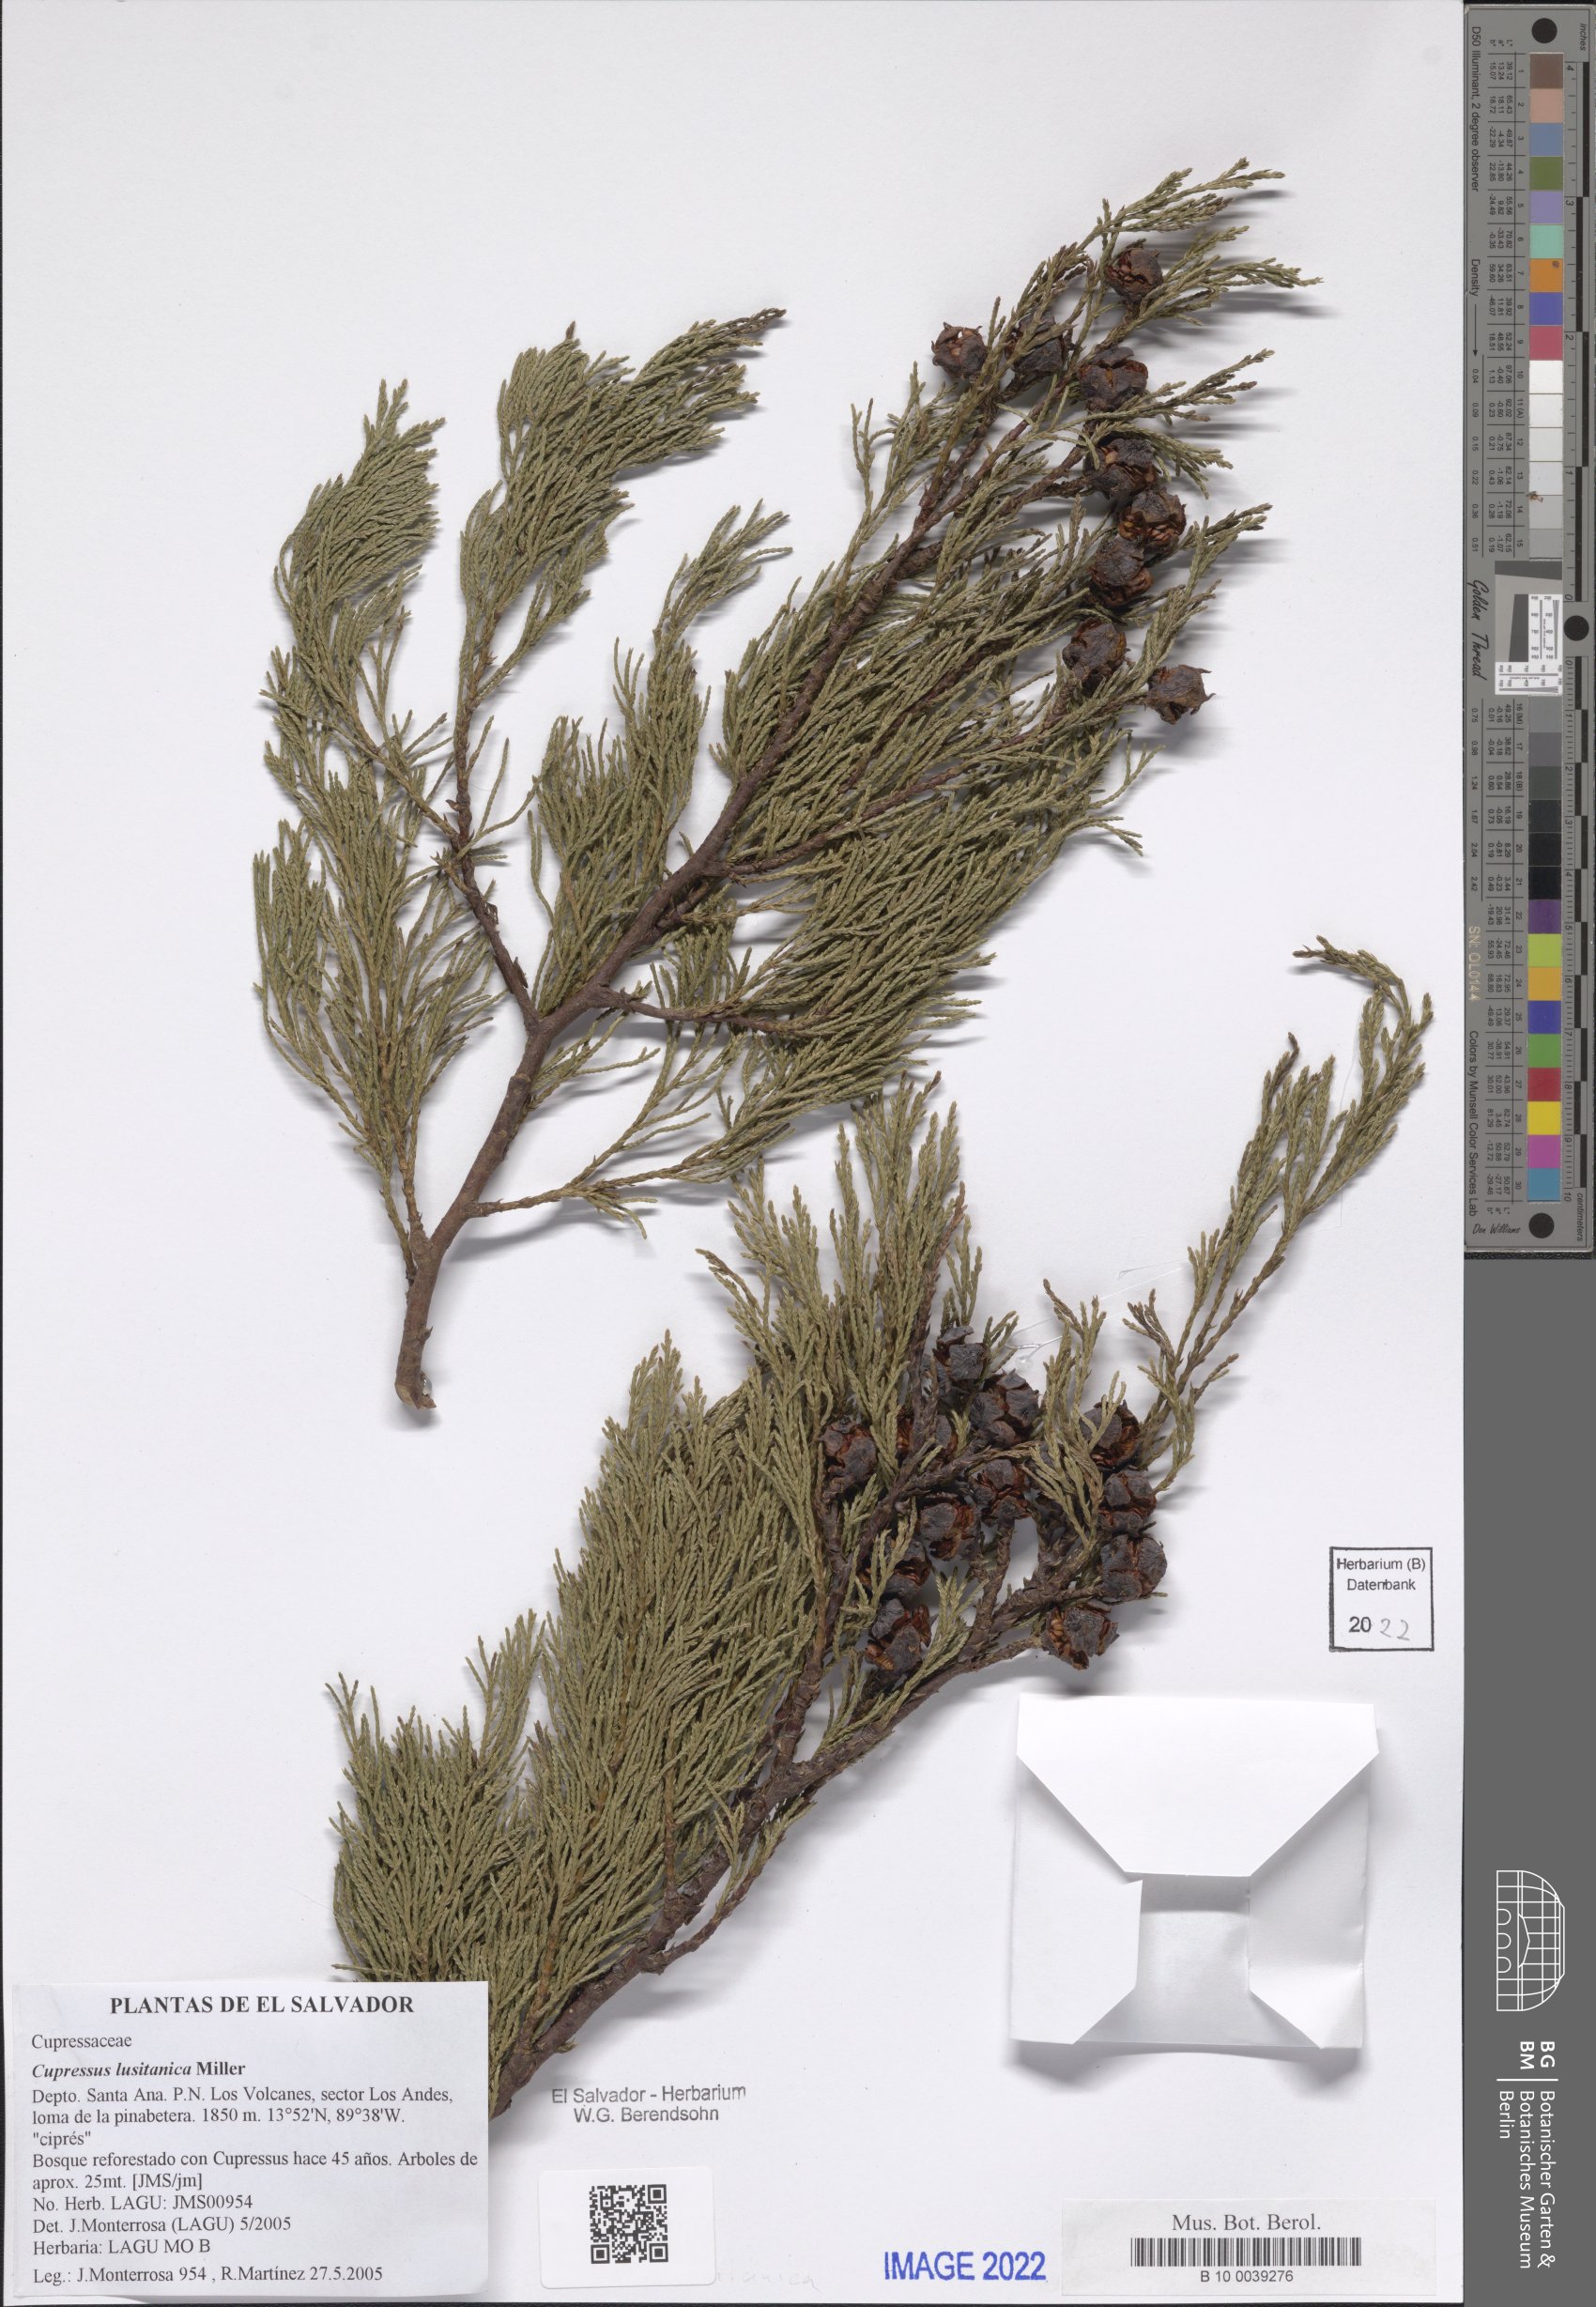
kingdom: Plantae
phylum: Tracheophyta
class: Pinopsida
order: Pinales
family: Cupressaceae
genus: Cupressus
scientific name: Cupressus lusitanica
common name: Mexican cypress
